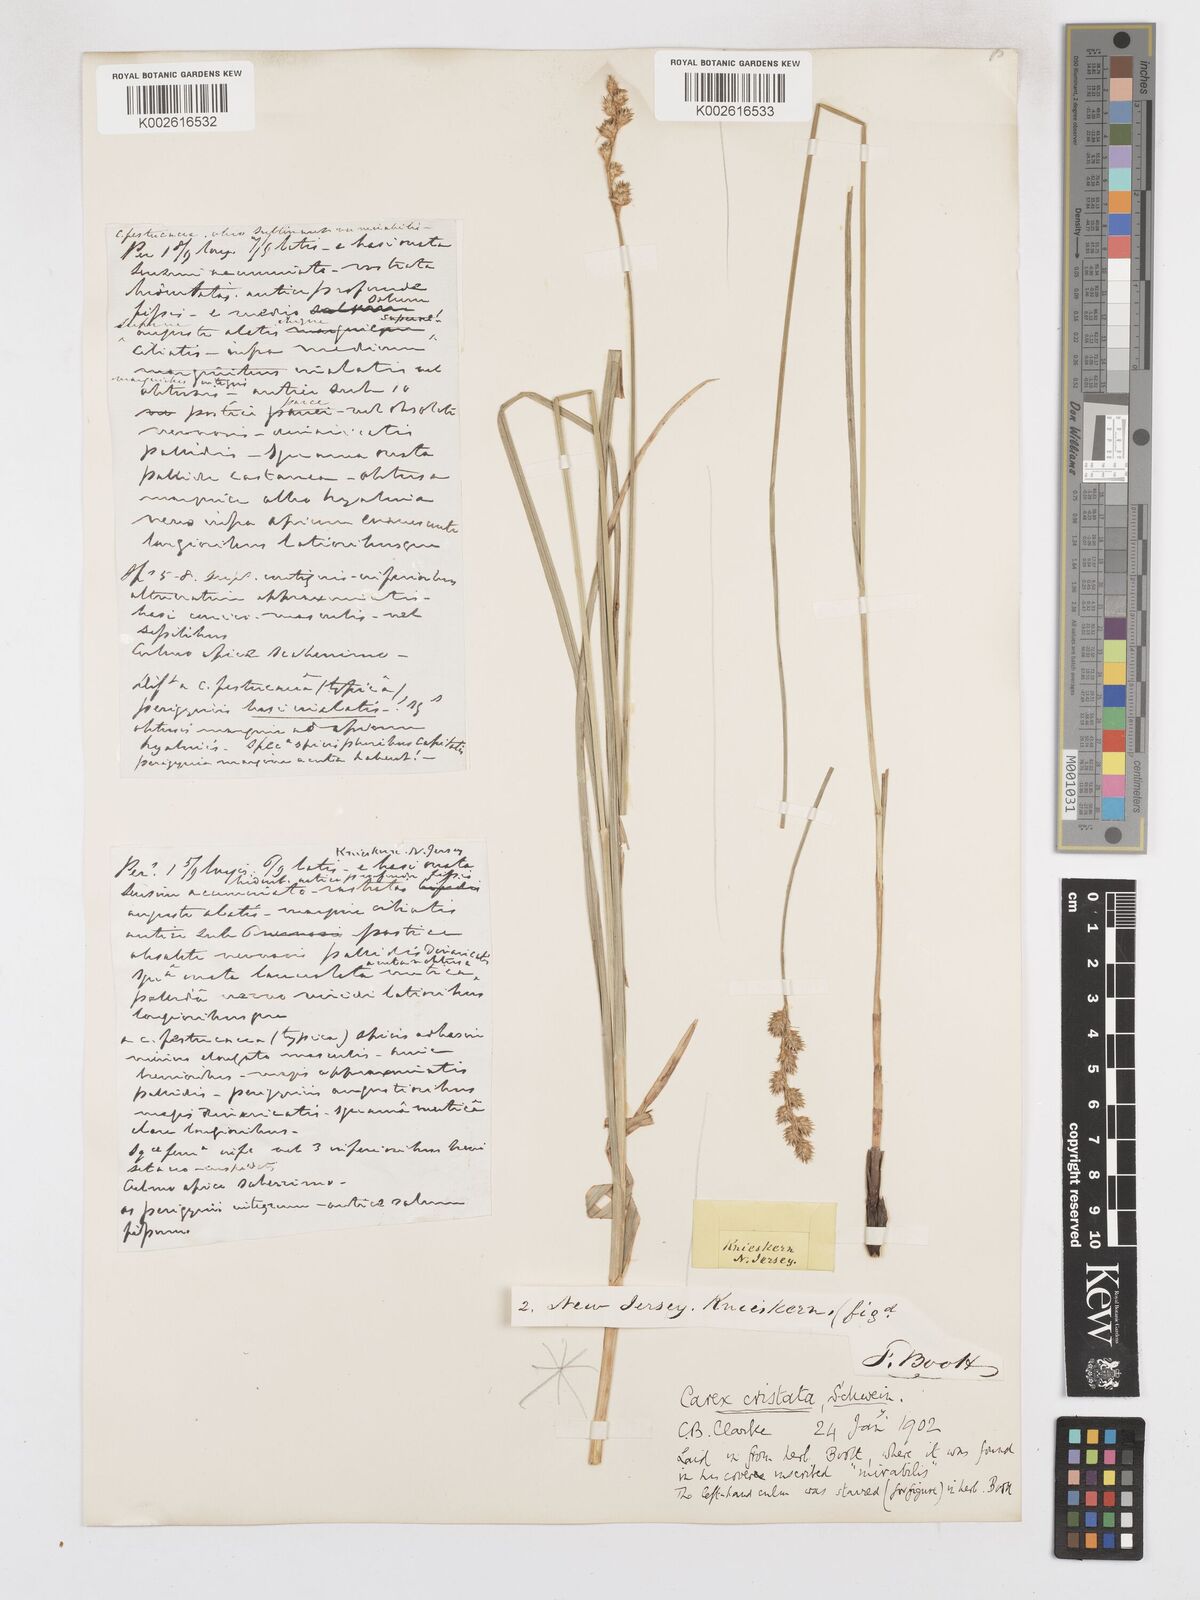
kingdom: Plantae
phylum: Tracheophyta
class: Liliopsida
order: Poales
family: Cyperaceae
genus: Carex
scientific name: Carex cristatella
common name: Crested oval sedge
